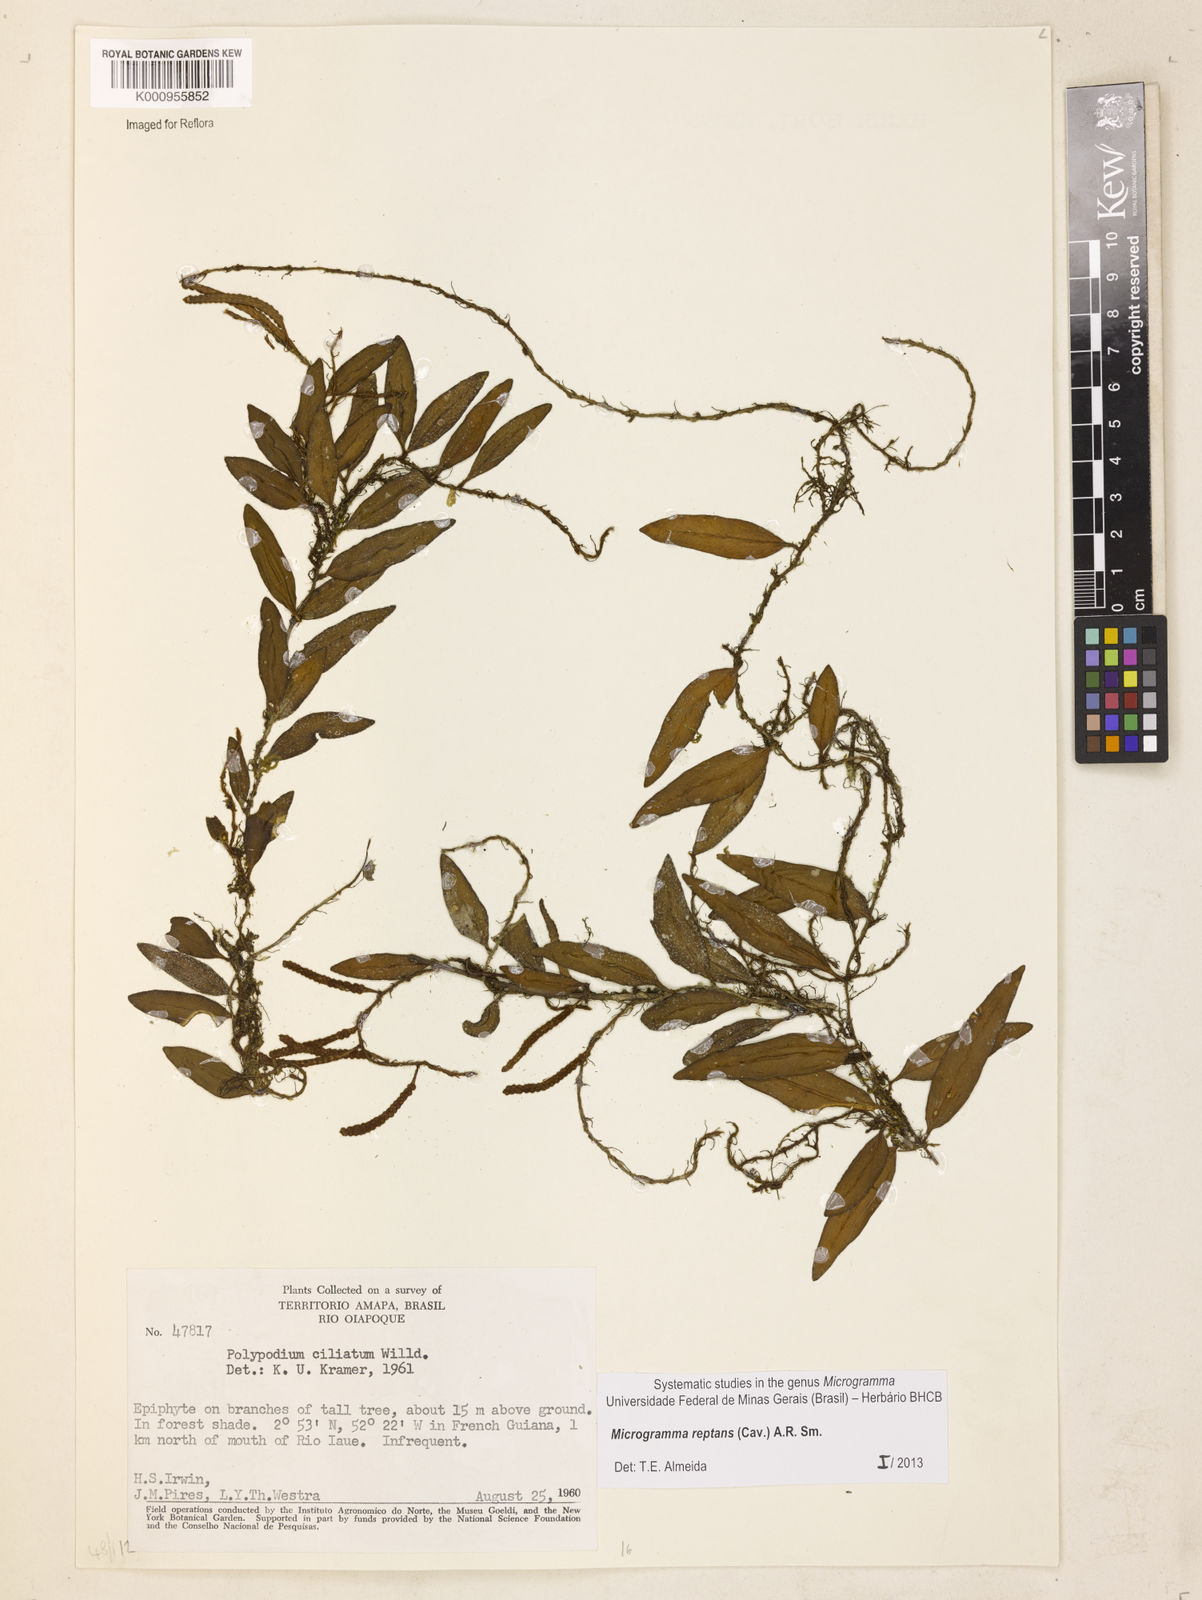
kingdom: Plantae
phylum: Tracheophyta
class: Polypodiopsida
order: Polypodiales
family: Polypodiaceae
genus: Microgramma
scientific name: Microgramma reptans
